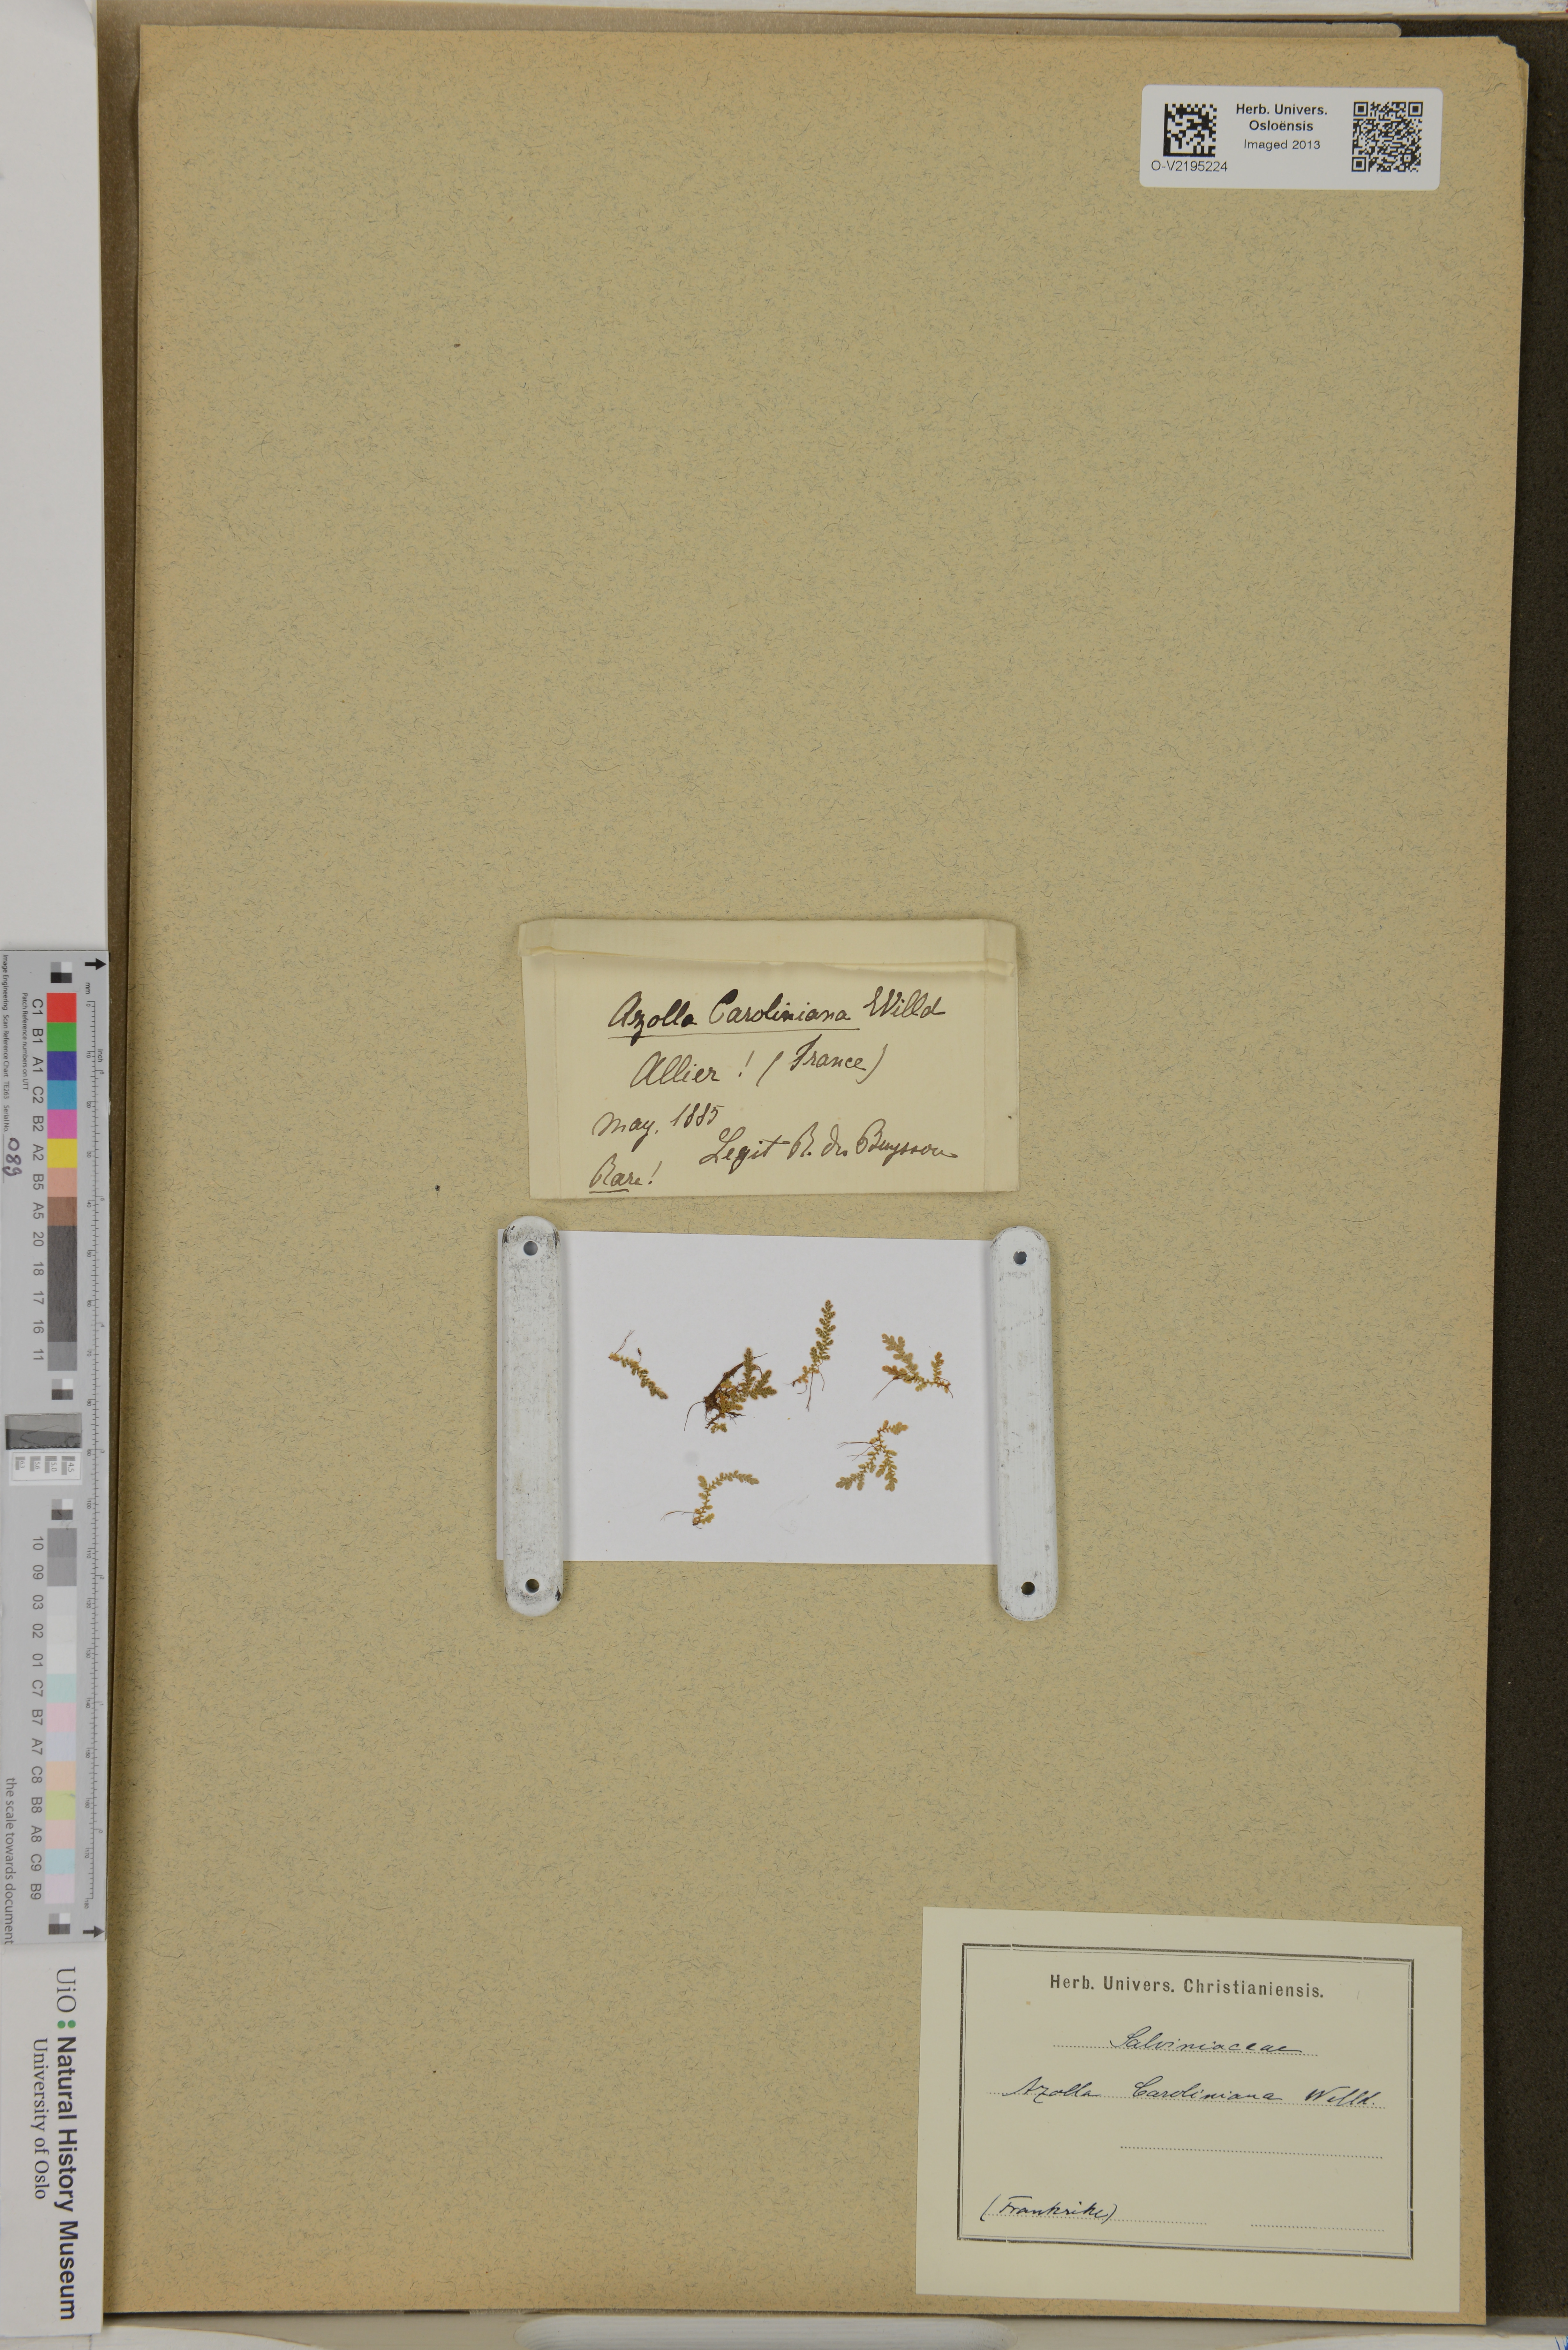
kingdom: Plantae
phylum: Tracheophyta
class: Polypodiopsida
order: Salviniales
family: Salviniaceae
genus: Azolla
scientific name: Azolla caroliniana
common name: Carolina mosquitofern
